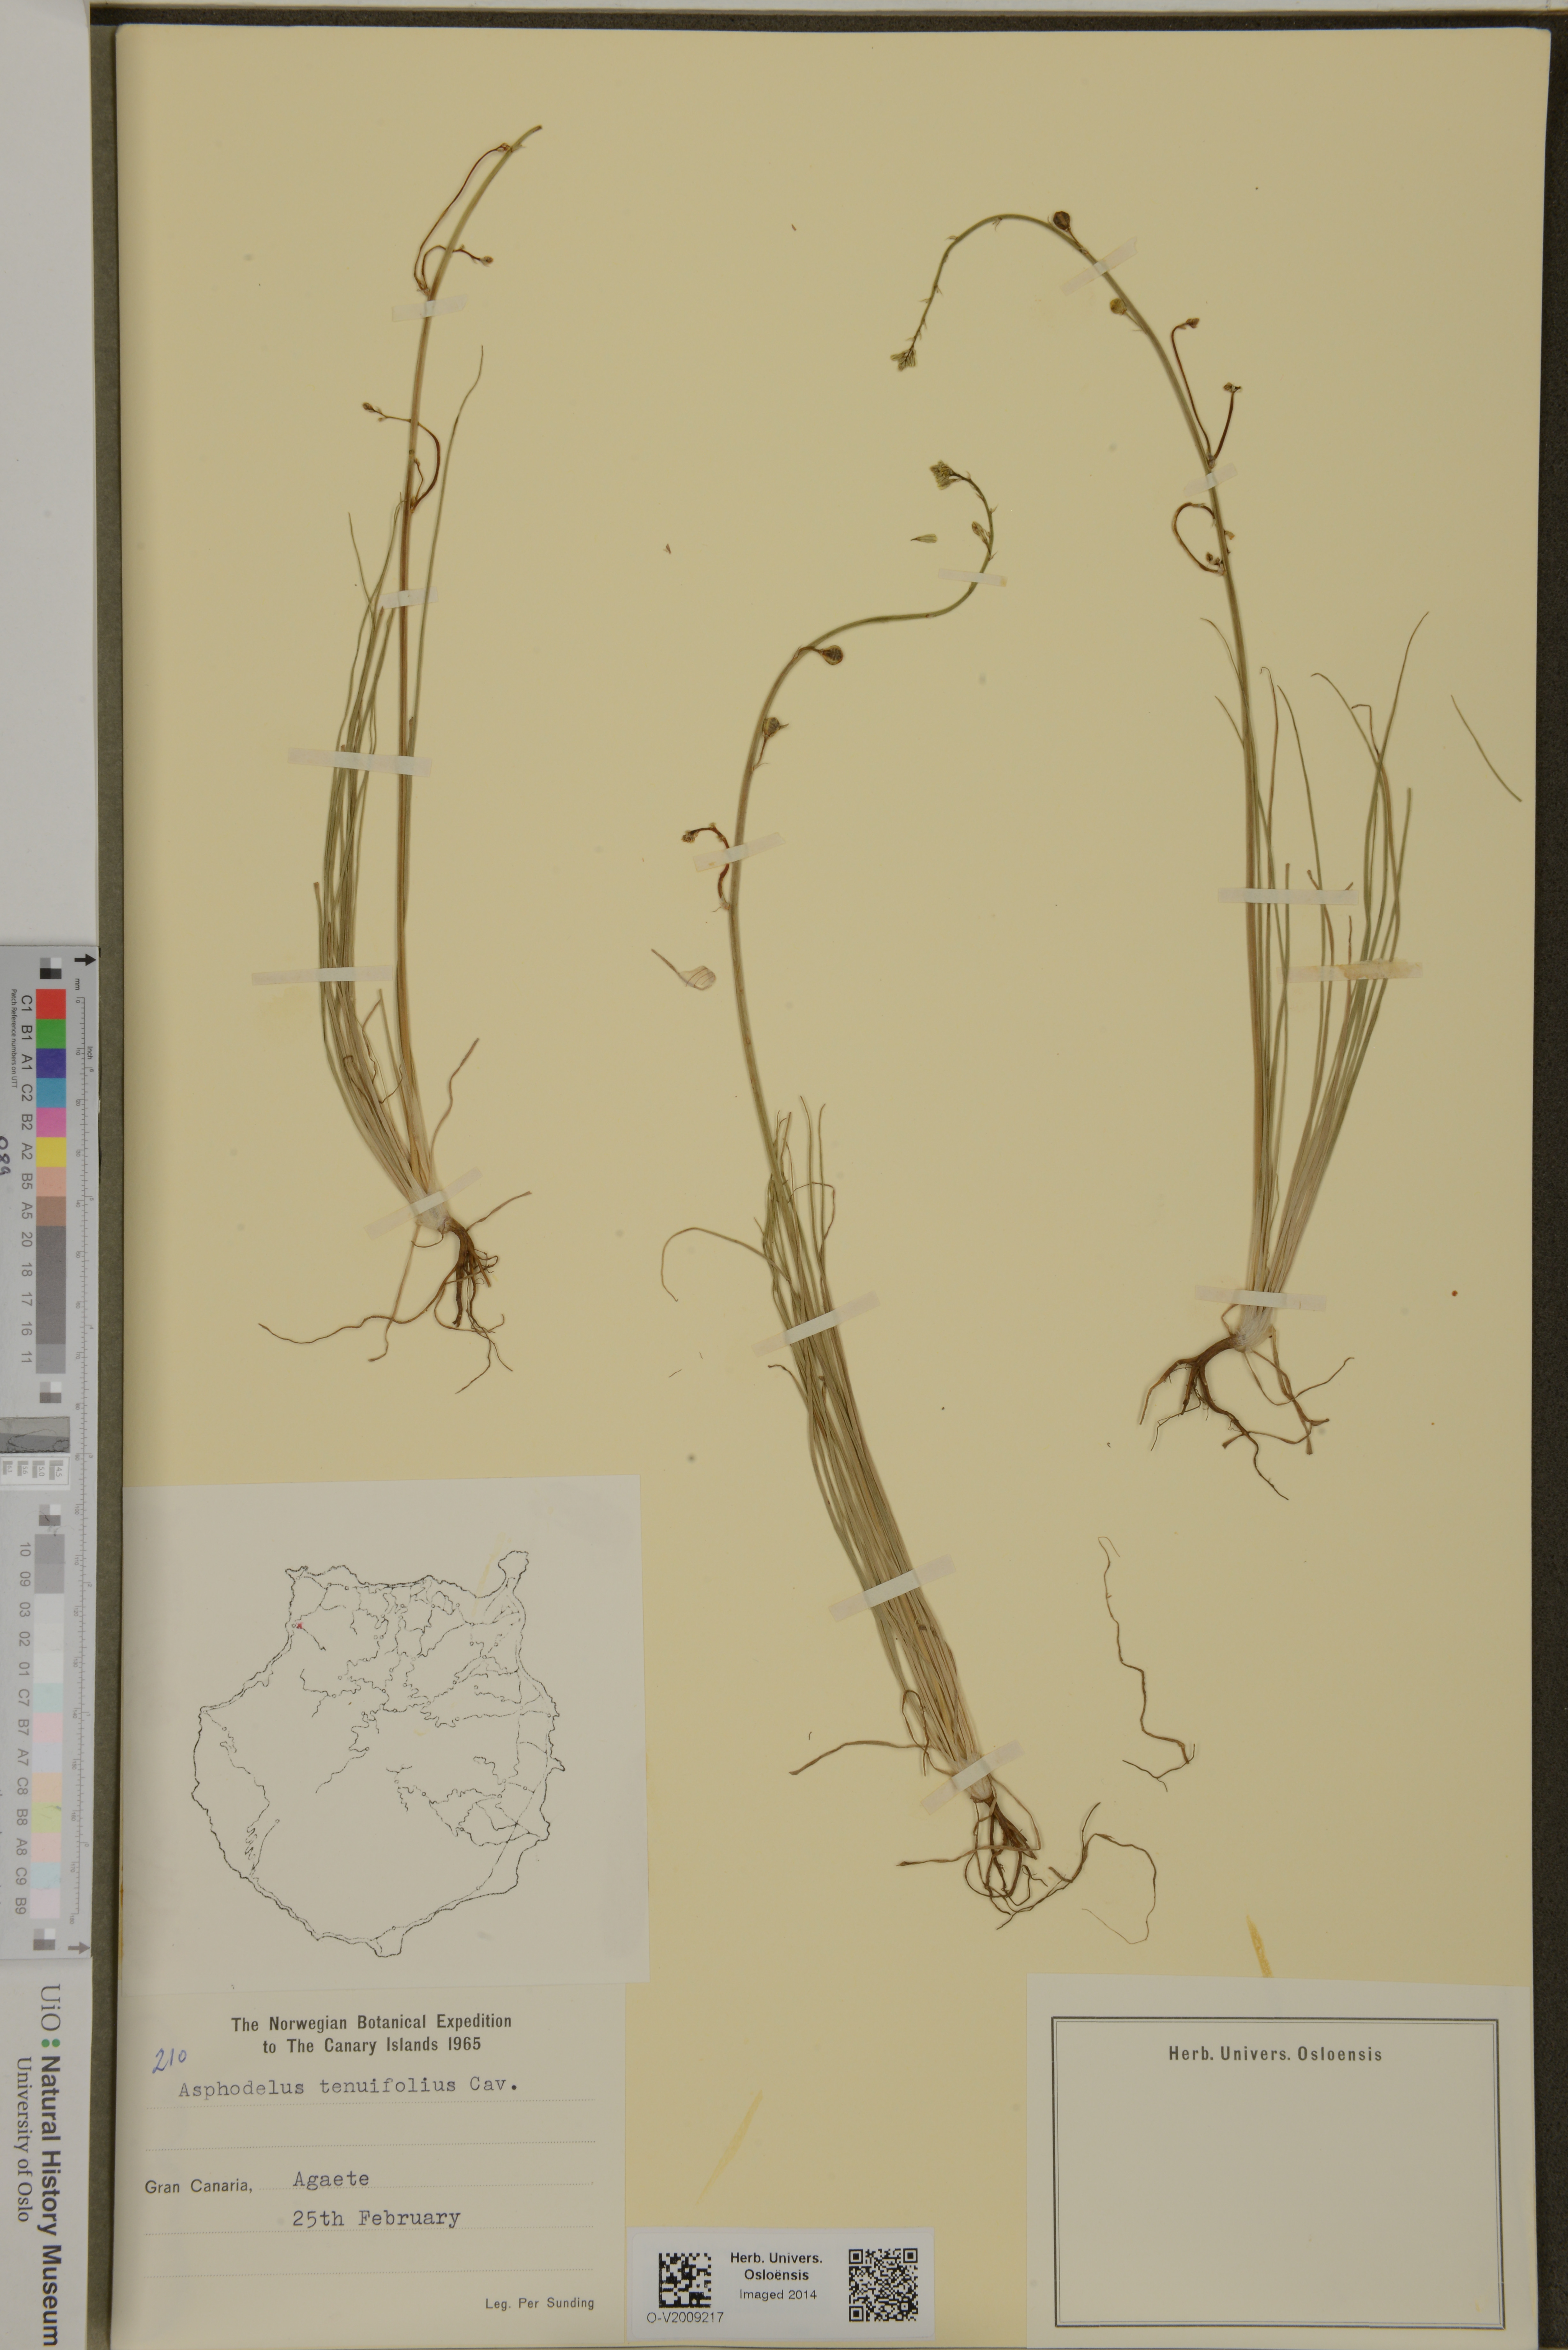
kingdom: Plantae
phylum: Tracheophyta
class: Liliopsida
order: Asparagales
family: Asphodelaceae
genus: Asphodelus
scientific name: Asphodelus tenuifolius
